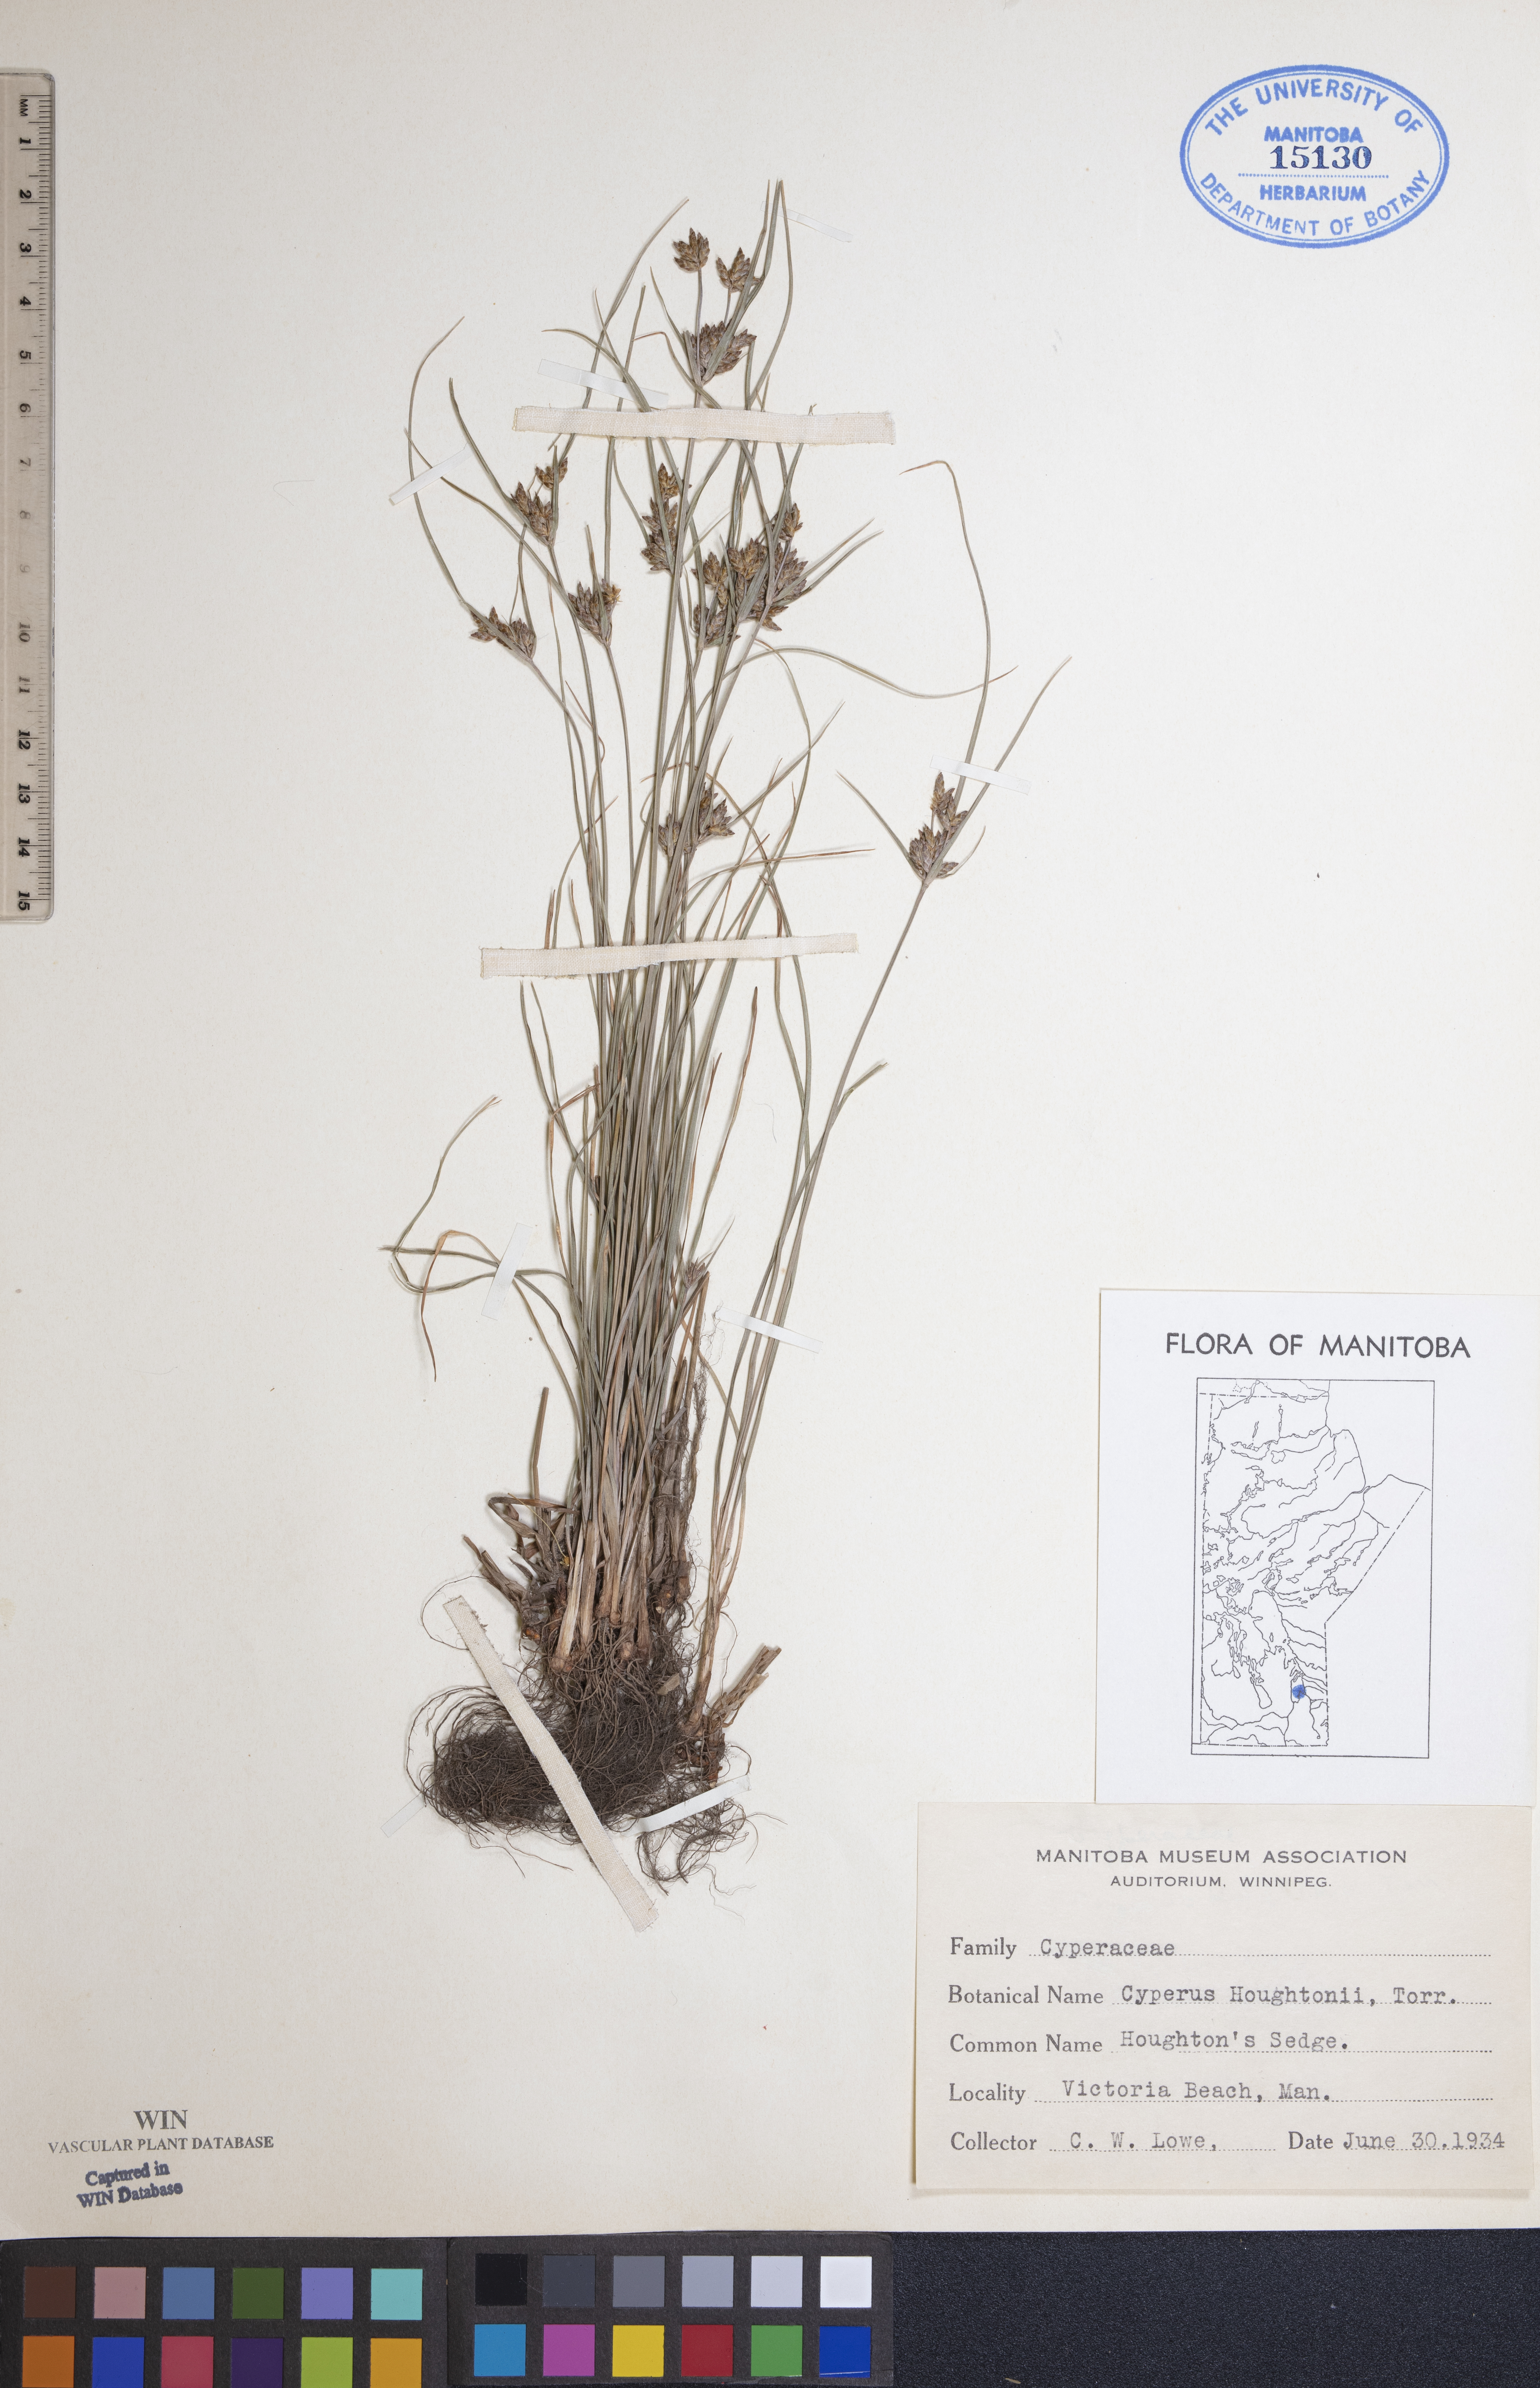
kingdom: Plantae
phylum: Tracheophyta
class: Liliopsida
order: Poales
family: Cyperaceae
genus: Cyperus
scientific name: Cyperus houghtonii
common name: Houghton's cyperus
